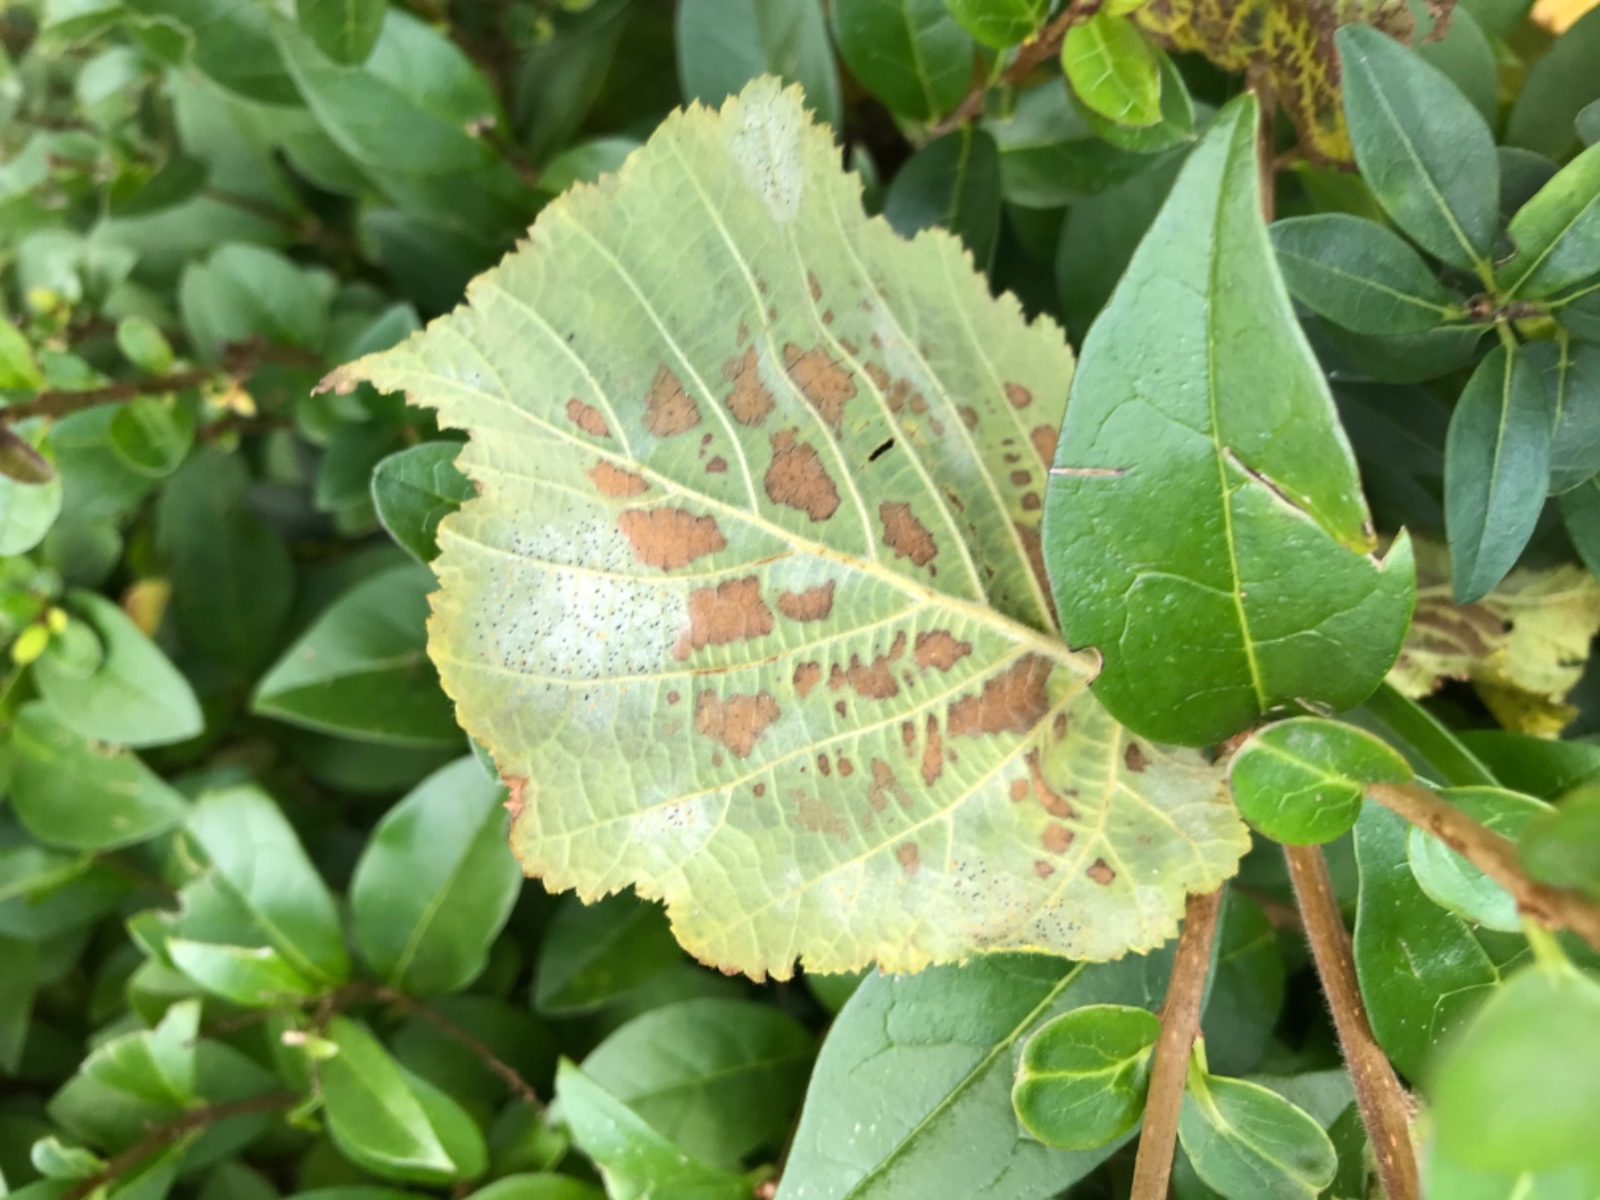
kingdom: Fungi
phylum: Ascomycota
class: Leotiomycetes
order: Helotiales
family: Erysiphaceae
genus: Phyllactinia
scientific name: Phyllactinia guttata
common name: hassel-meldug
